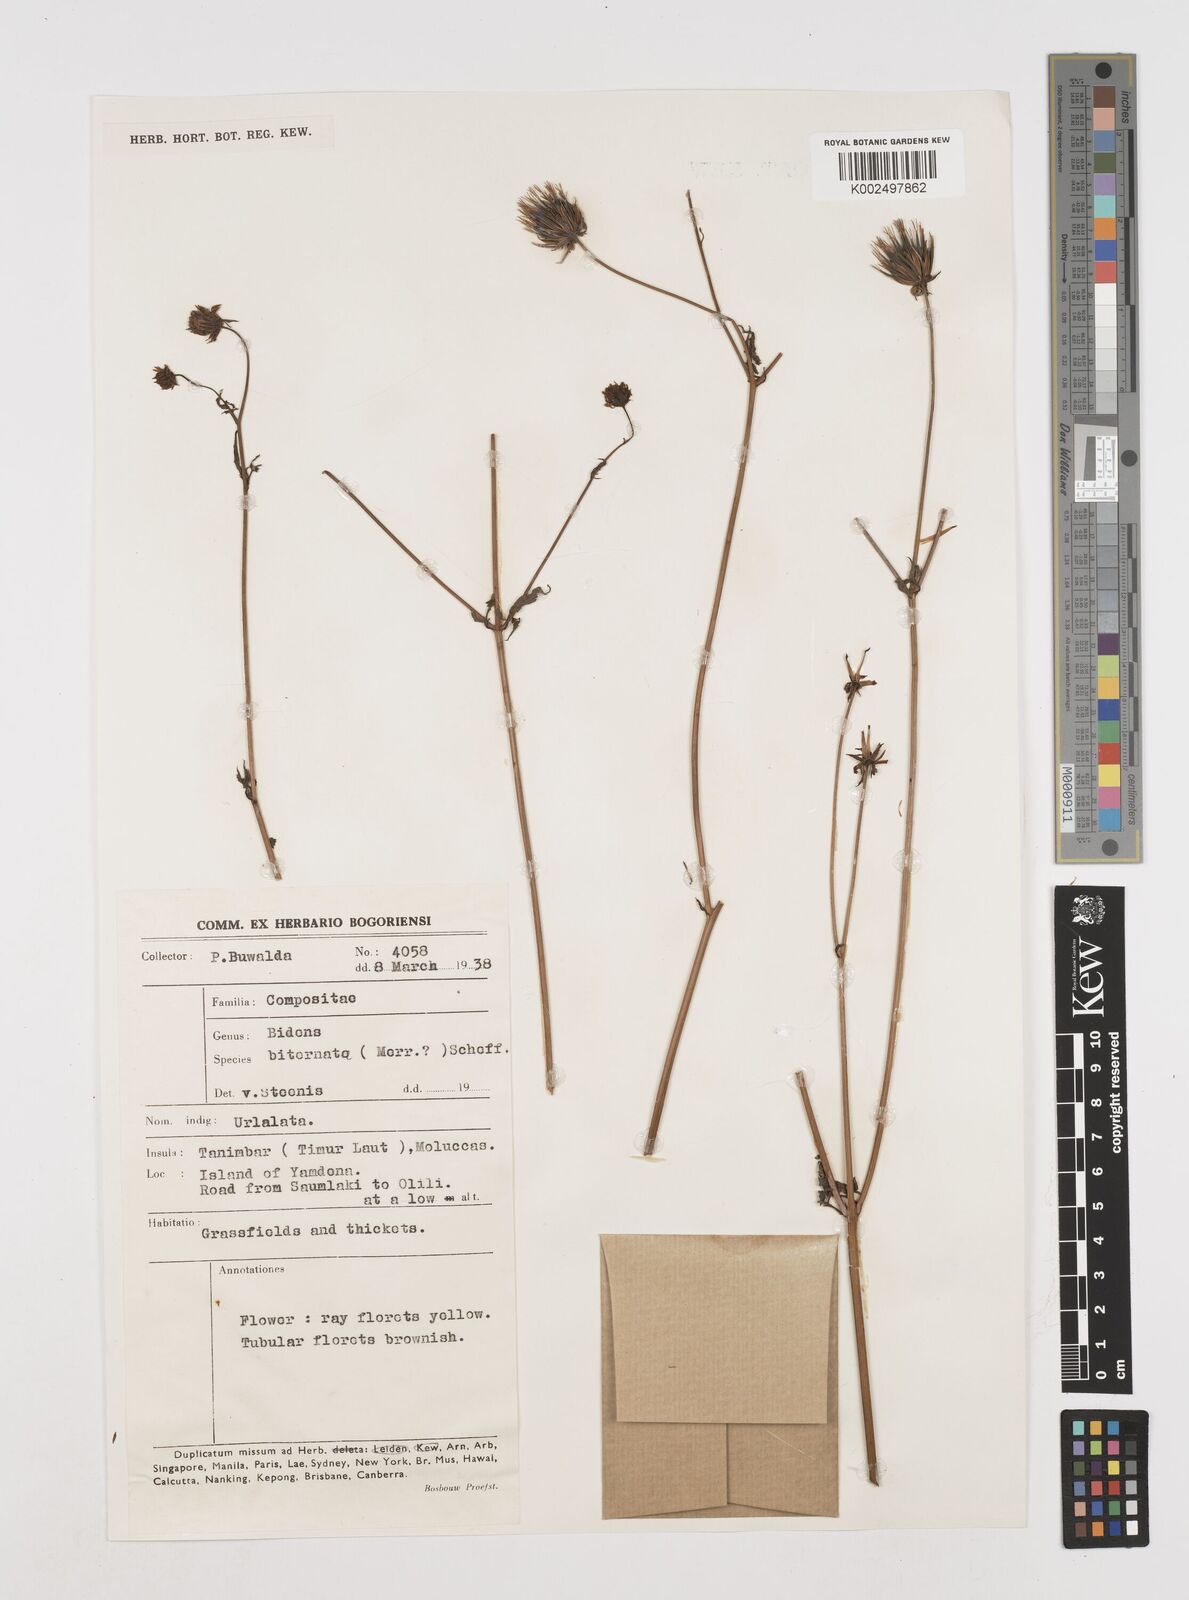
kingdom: Plantae
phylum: Tracheophyta
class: Magnoliopsida
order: Asterales
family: Asteraceae
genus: Bidens
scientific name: Bidens biternata
